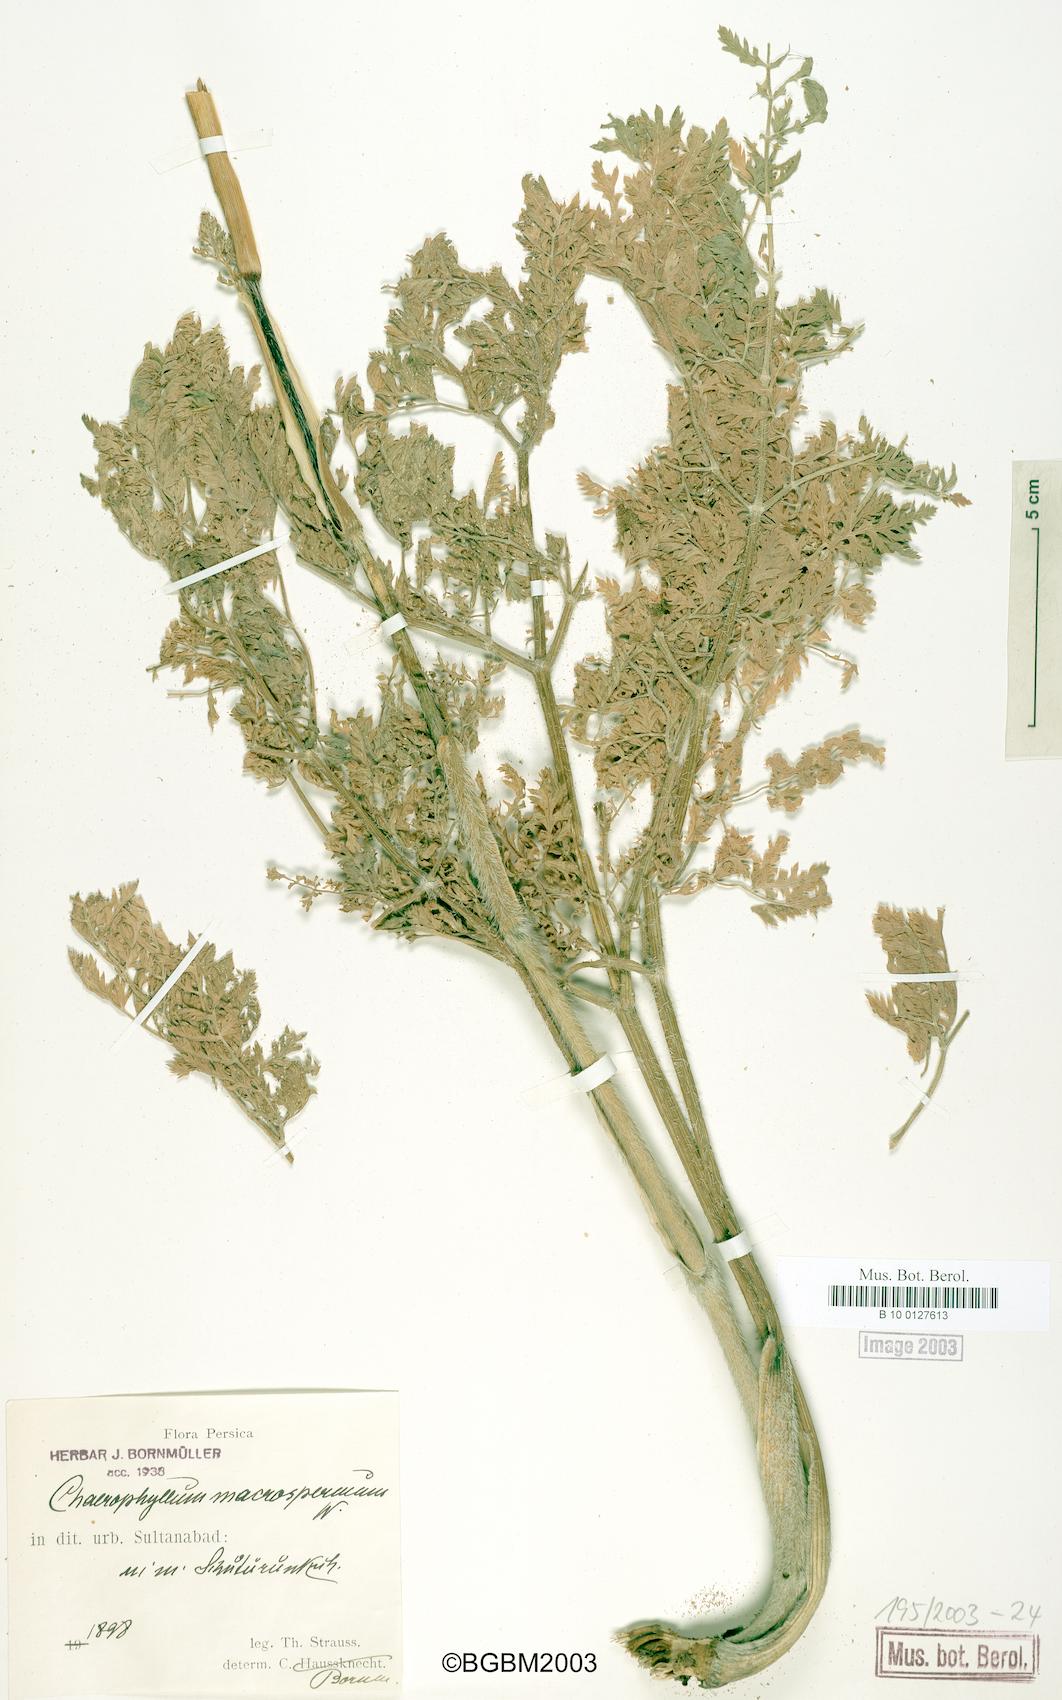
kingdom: Plantae
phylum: Tracheophyta
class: Magnoliopsida
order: Apiales
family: Apiaceae
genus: Chaerophyllum
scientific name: Chaerophyllum macrospermum
